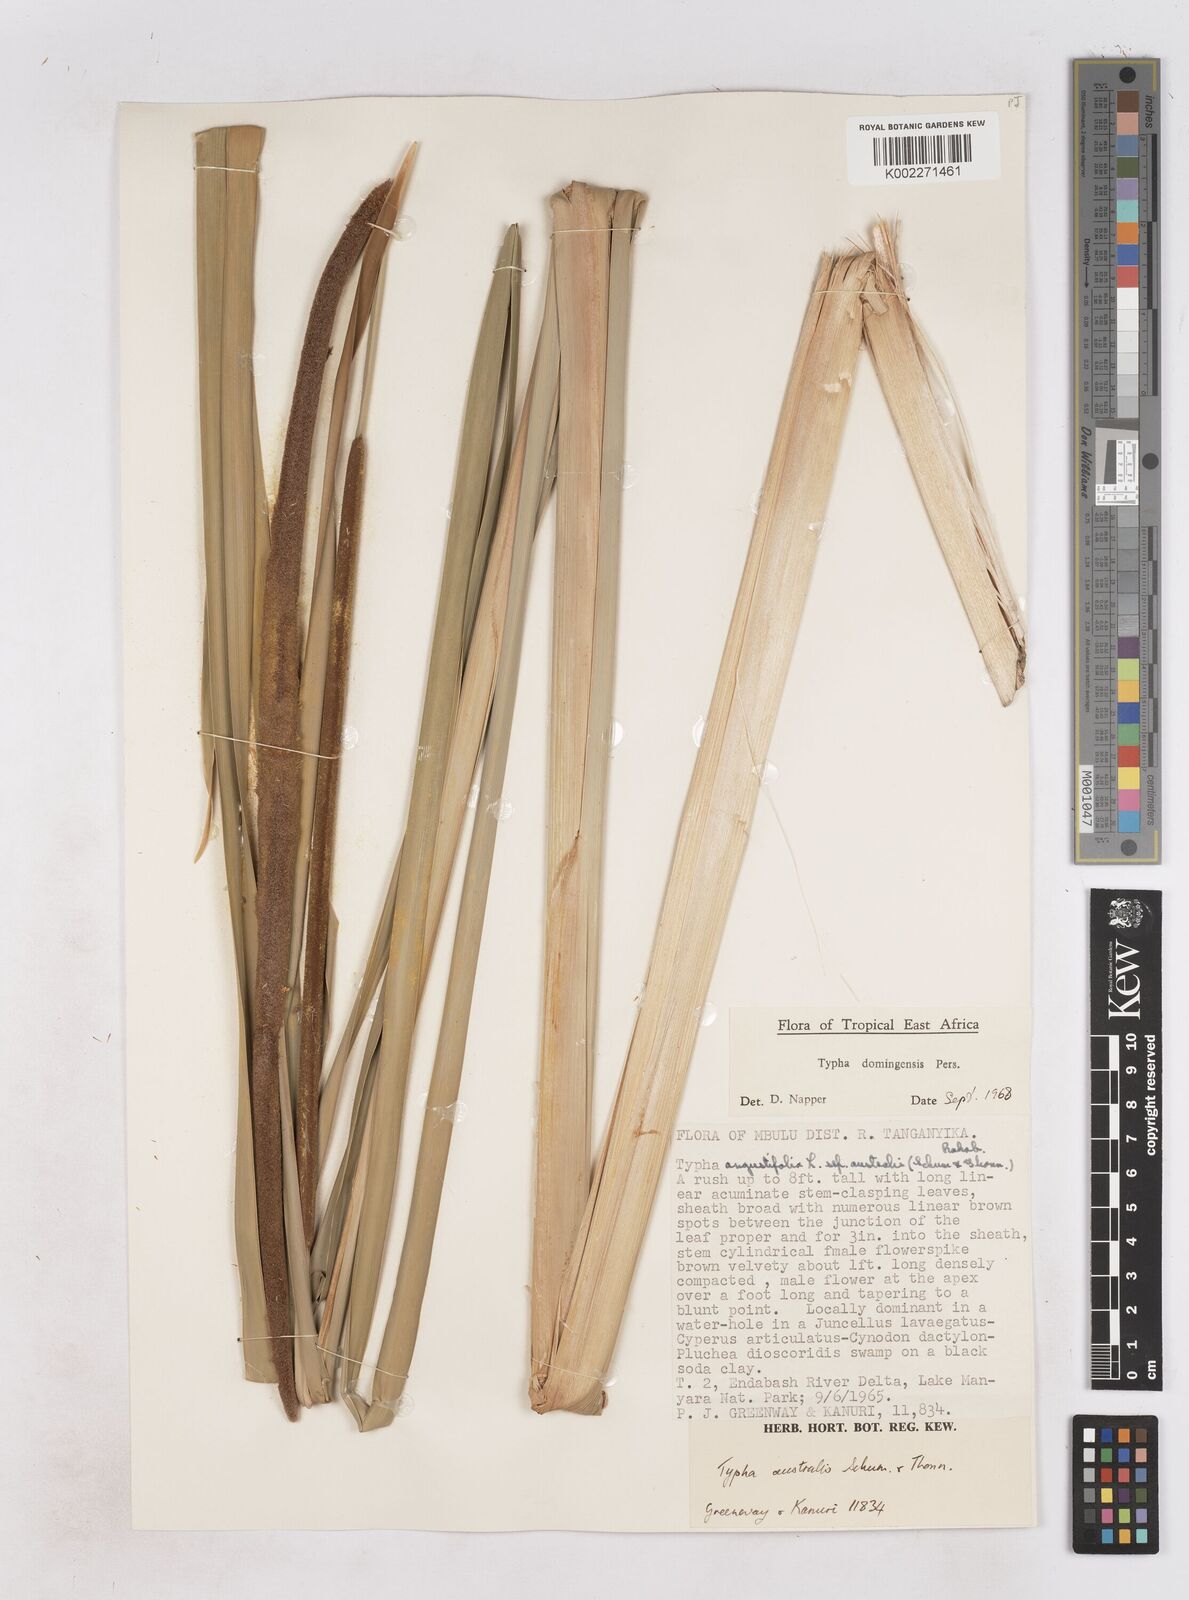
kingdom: Plantae
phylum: Tracheophyta
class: Liliopsida
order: Poales
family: Typhaceae
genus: Typha
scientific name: Typha domingensis
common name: Southern cattail
